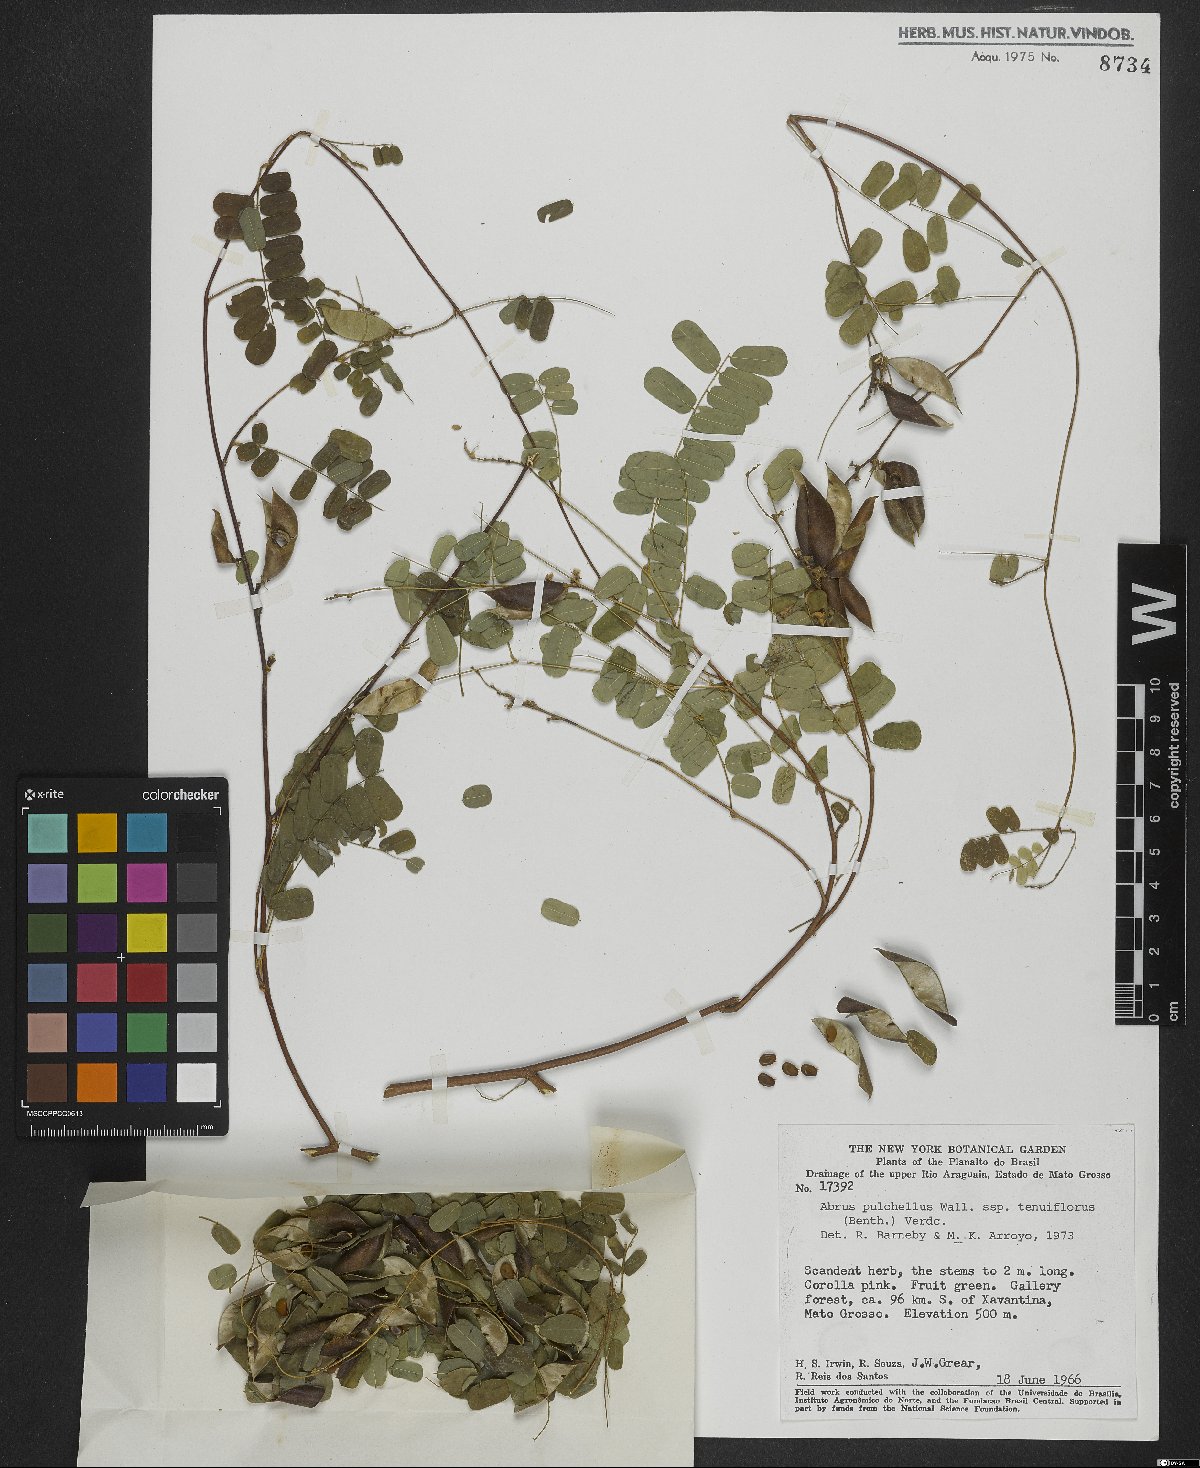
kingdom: Plantae
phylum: Tracheophyta
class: Magnoliopsida
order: Fabales
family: Fabaceae
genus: Abrus
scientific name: Abrus fruticulosus
